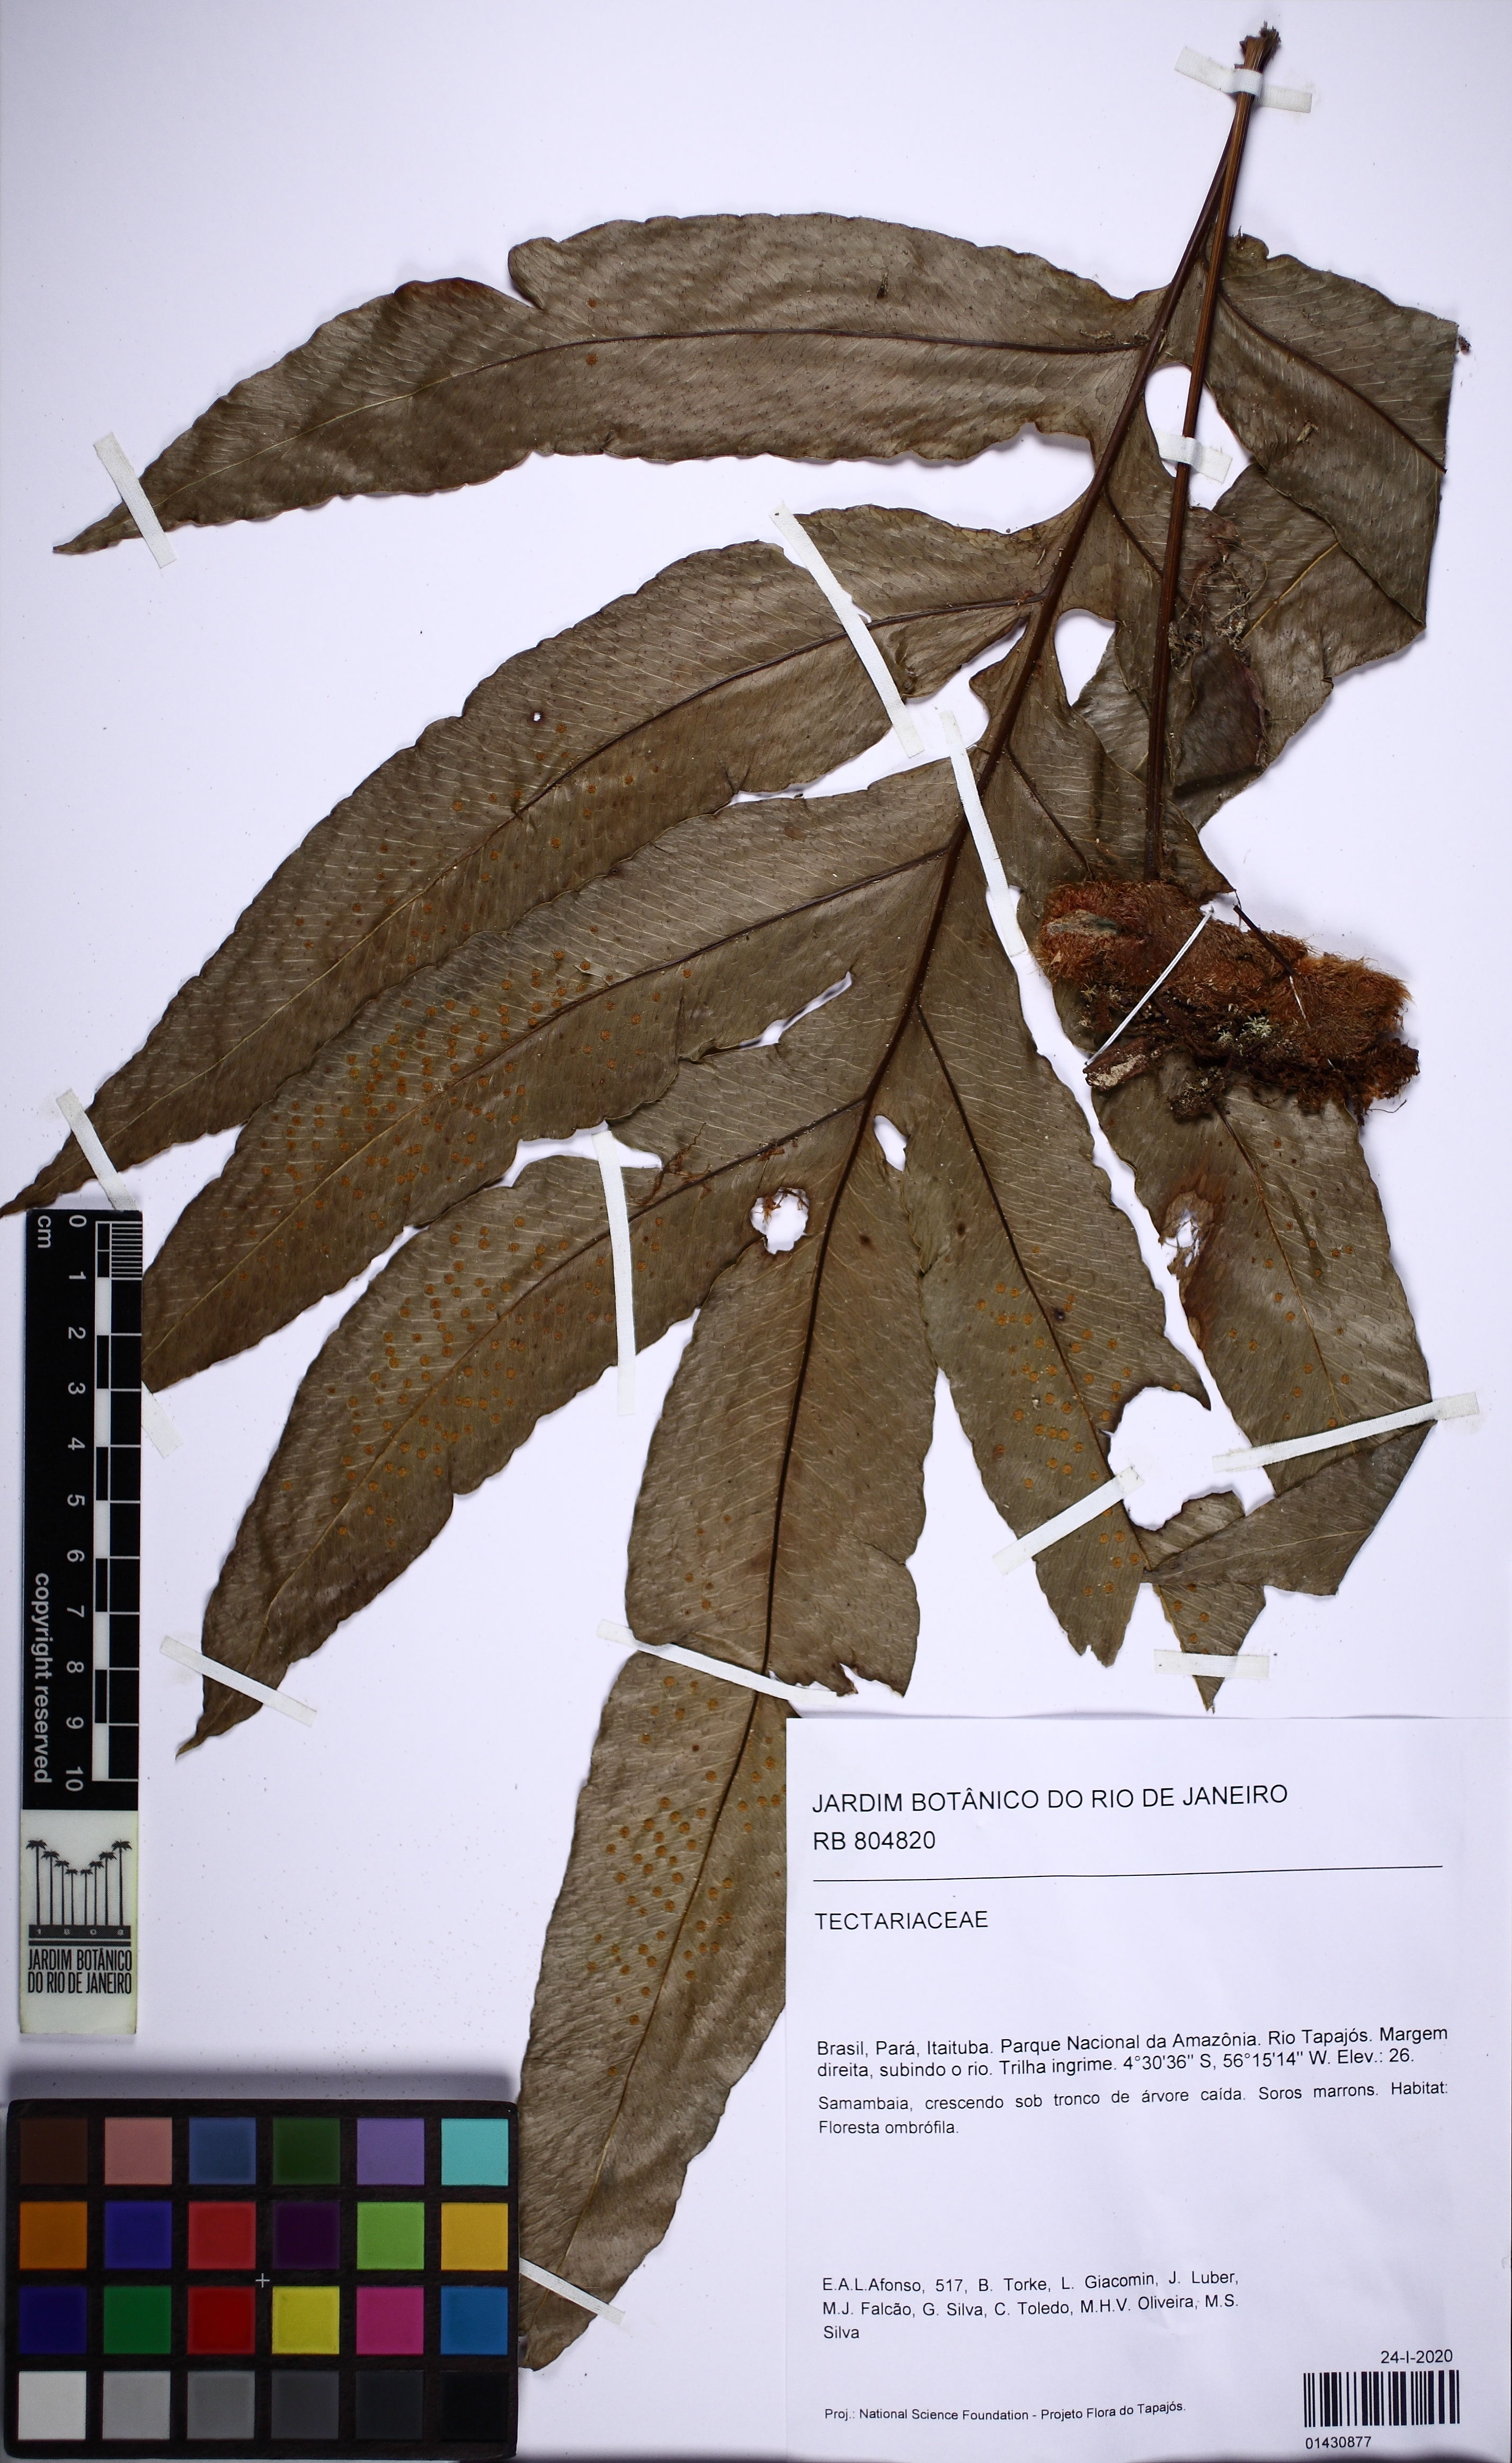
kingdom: Plantae
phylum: Tracheophyta
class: Polypodiopsida
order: Polypodiales
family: Polypodiaceae
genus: Phlebodium
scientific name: Phlebodium decumanum
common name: Golden polypod
